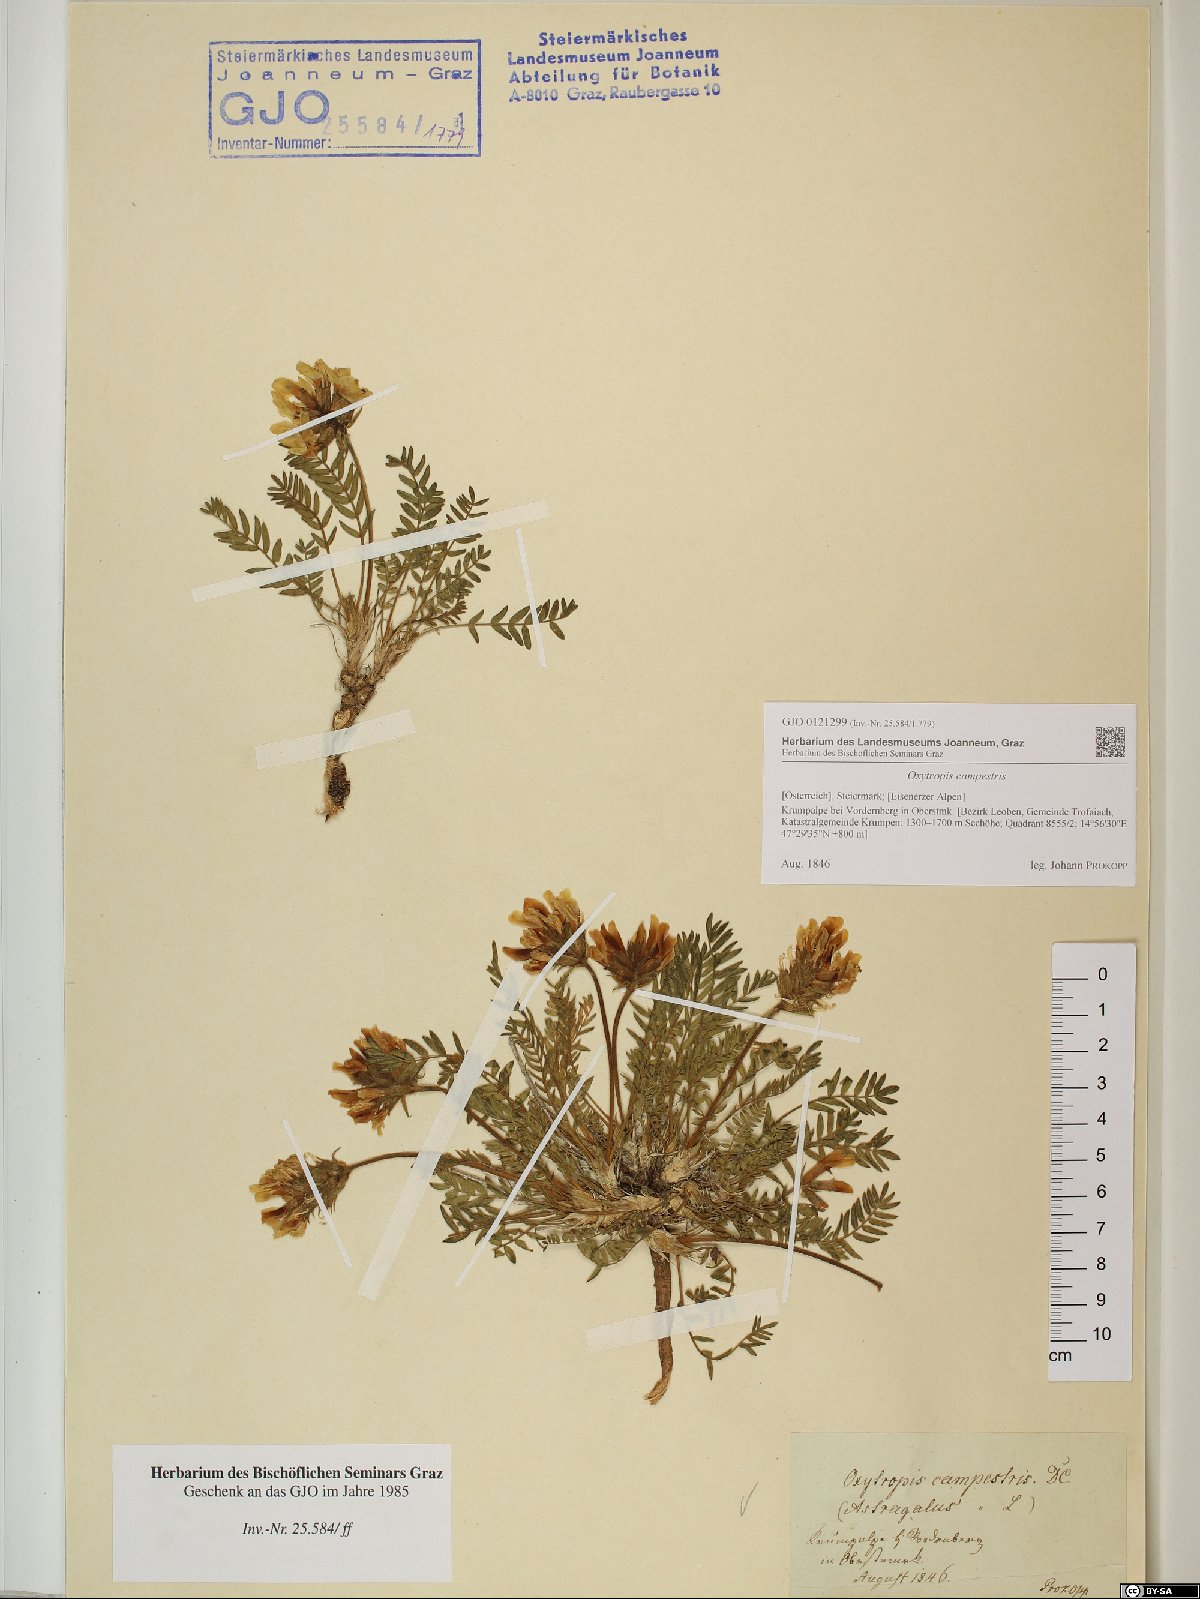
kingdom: Plantae
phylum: Tracheophyta
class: Magnoliopsida
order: Fabales
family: Fabaceae
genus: Oxytropis
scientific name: Oxytropis campestris
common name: Field locoweed
